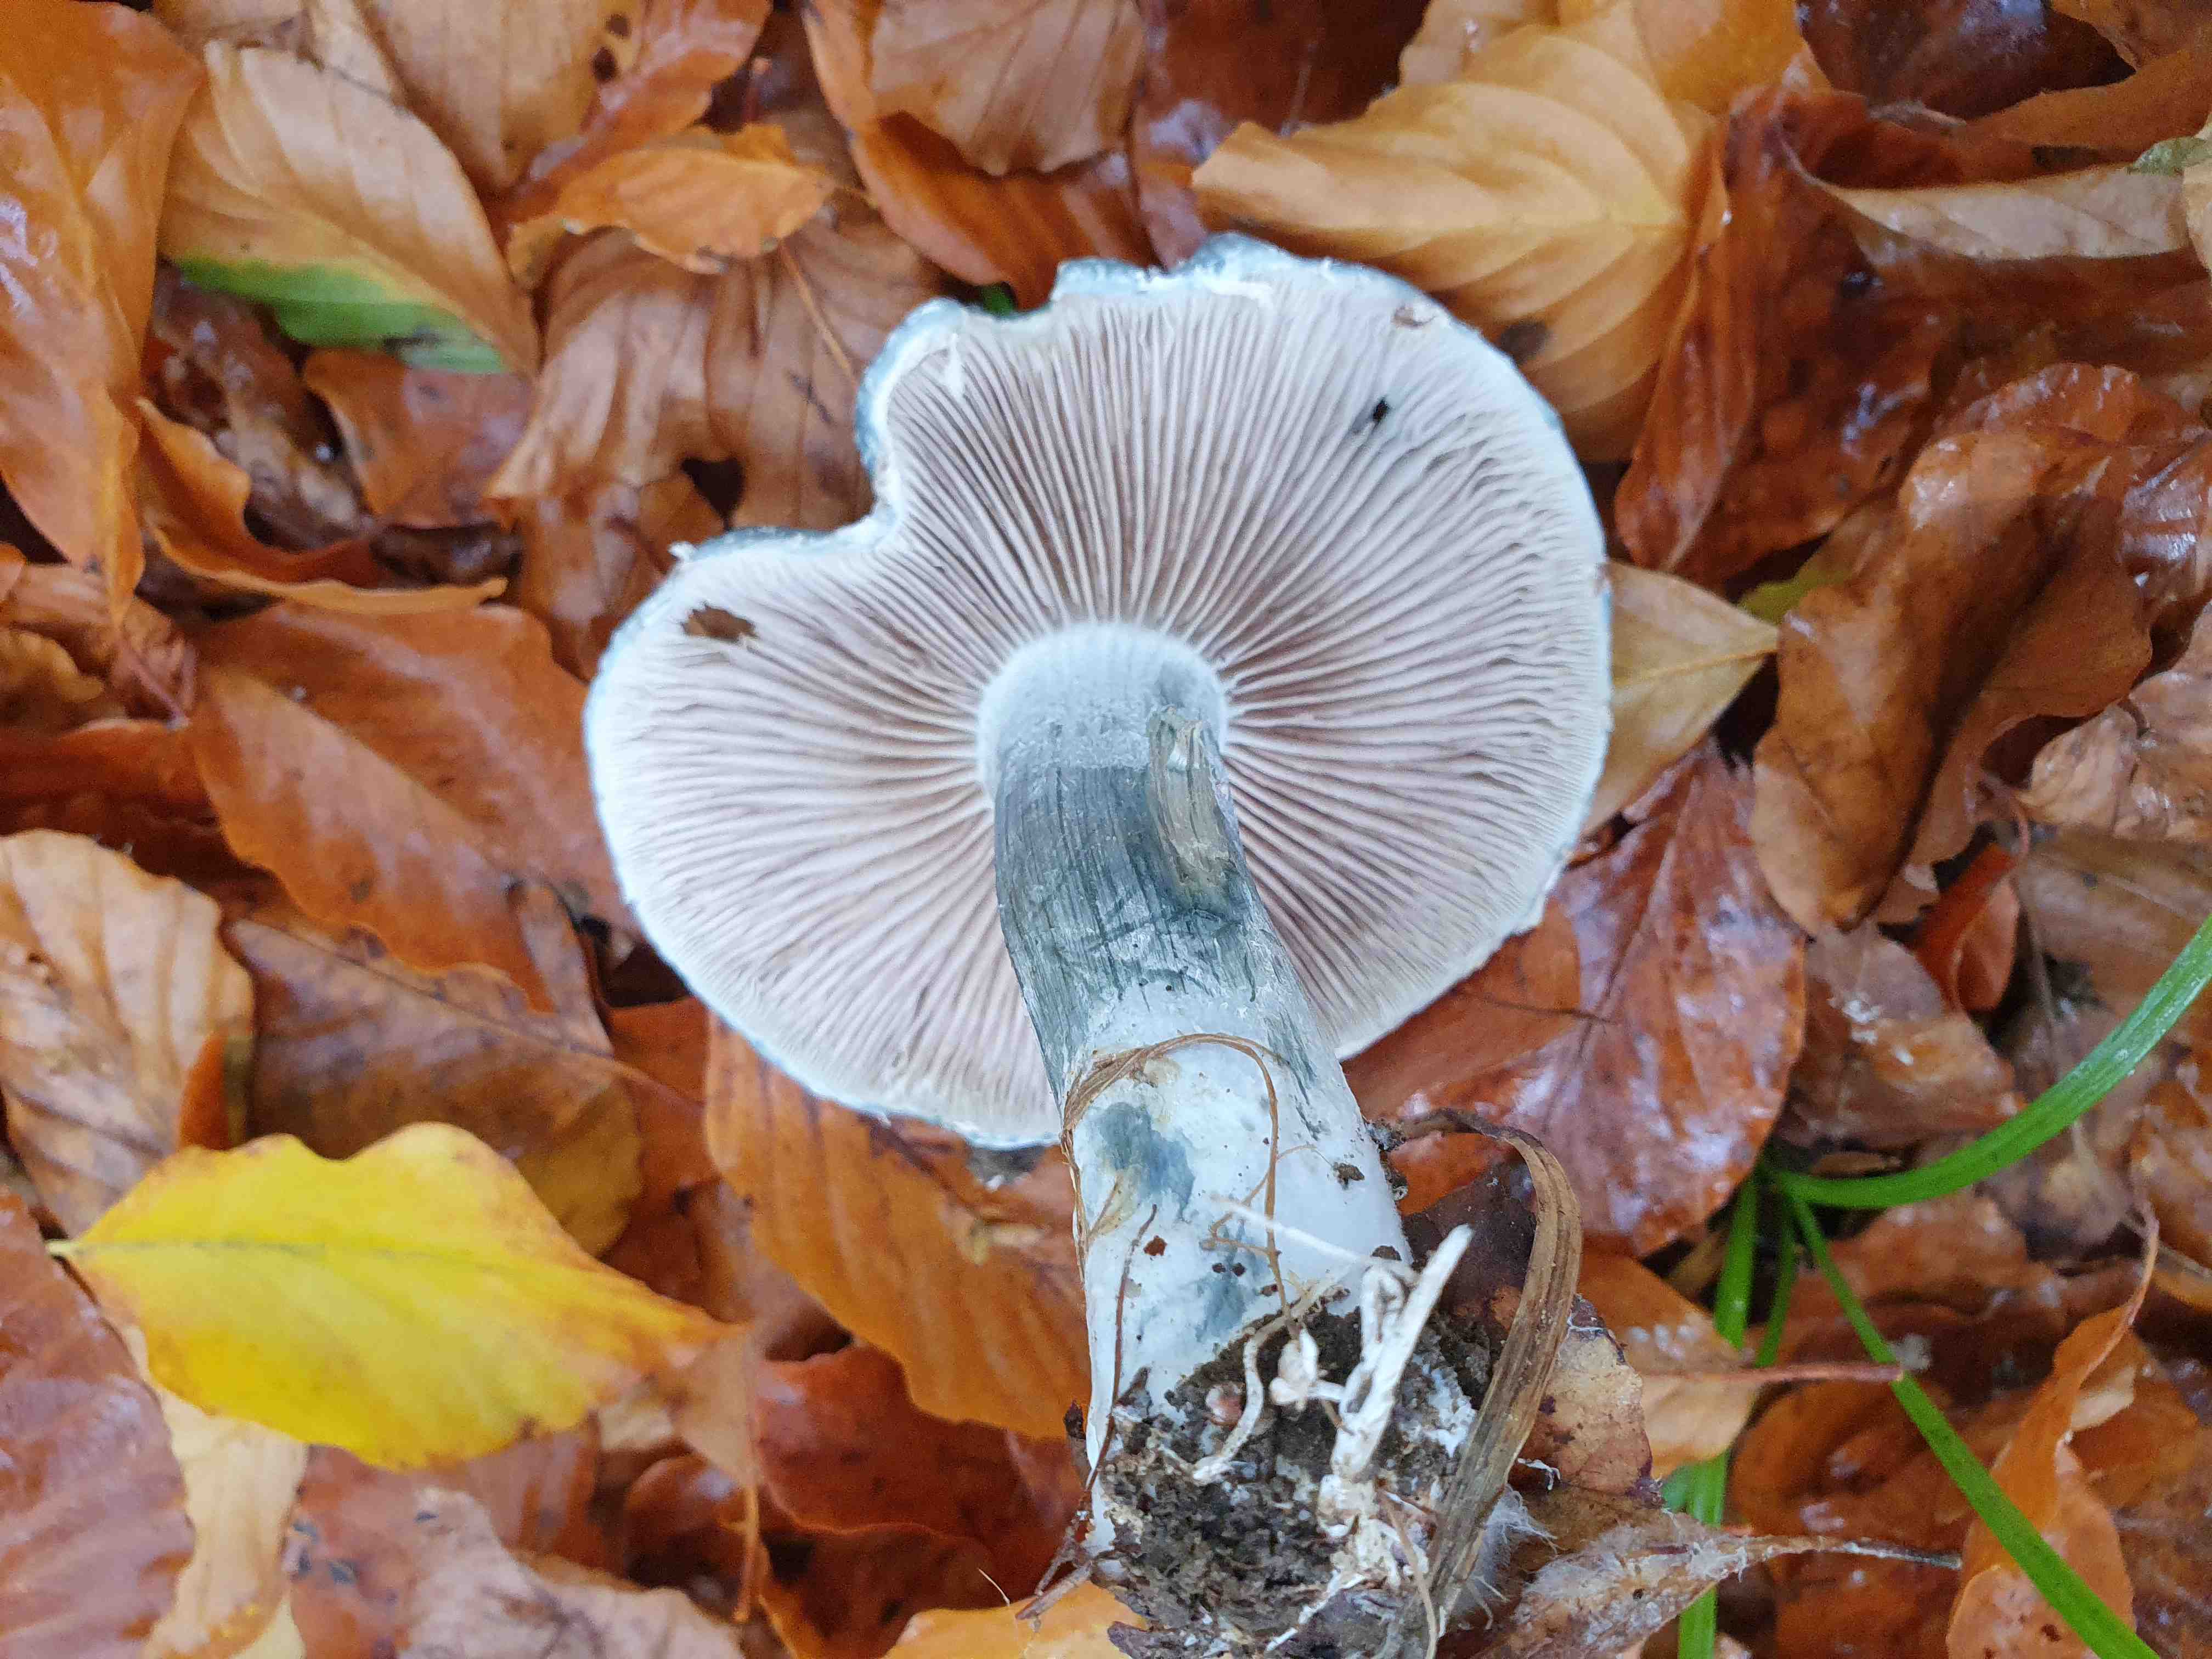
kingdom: Fungi
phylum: Basidiomycota
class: Agaricomycetes
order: Agaricales
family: Strophariaceae
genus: Stropharia
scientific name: Stropharia cyanea
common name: blågrøn bredblad
